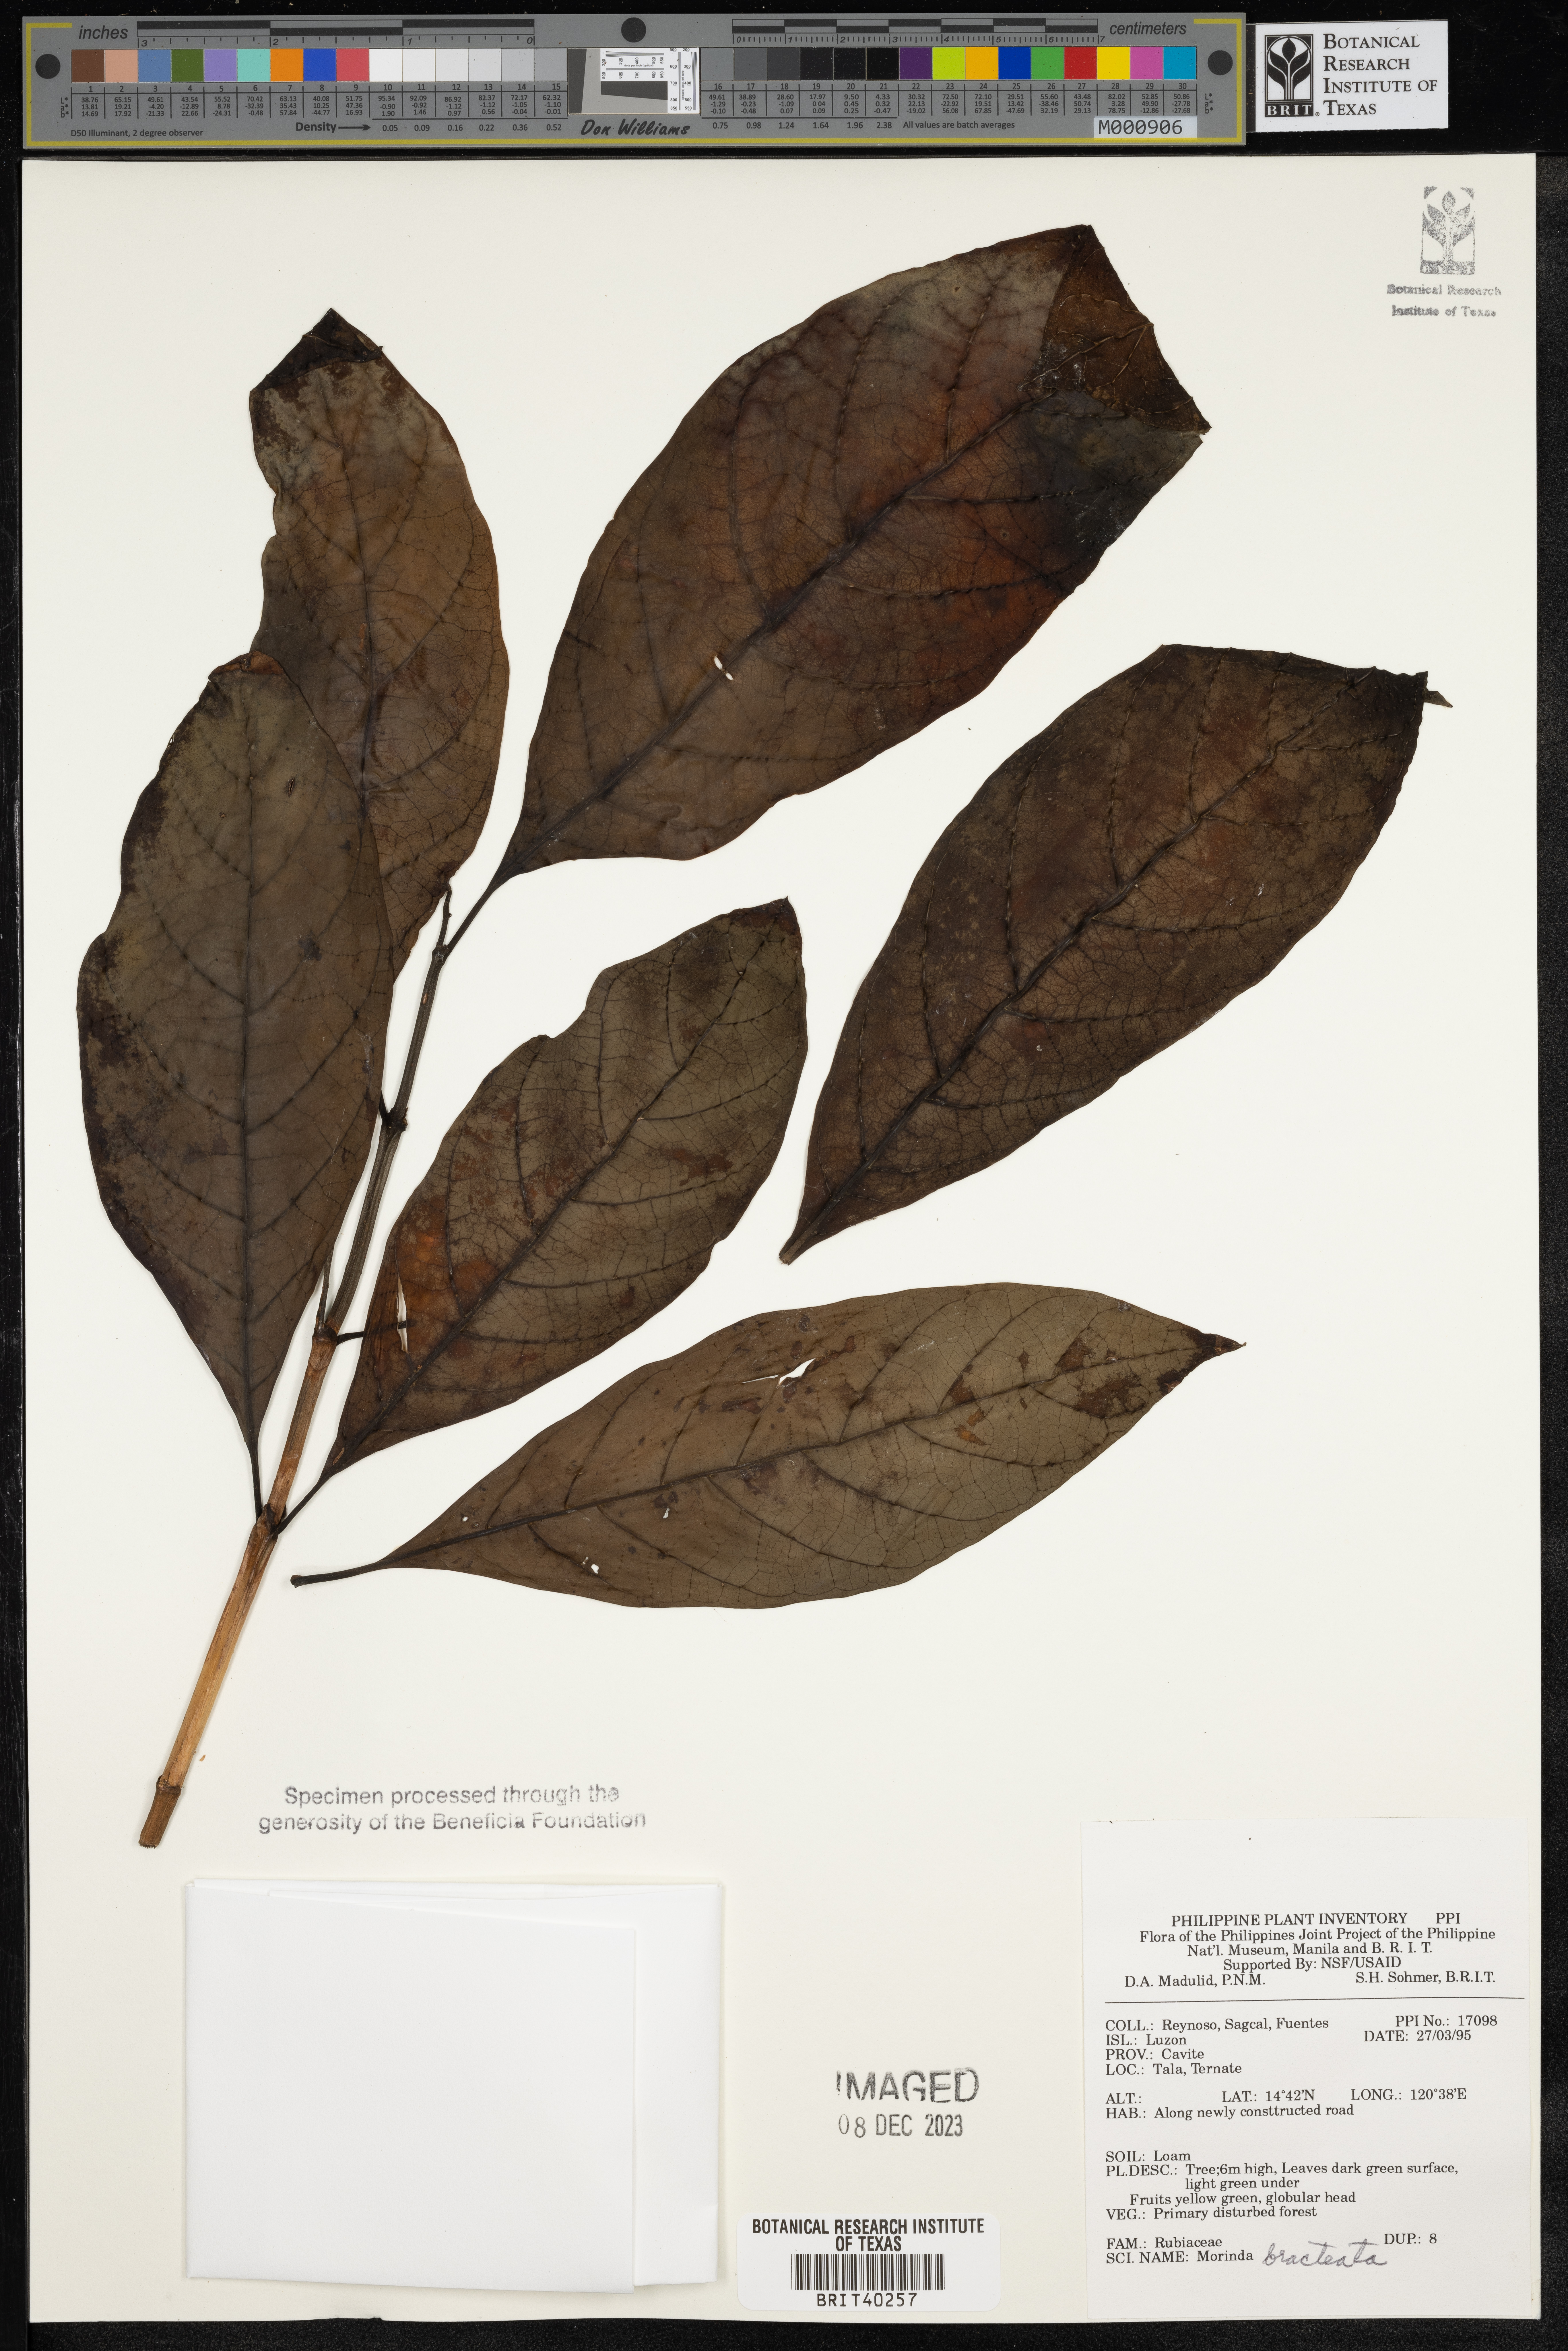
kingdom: Plantae
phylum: Tracheophyta
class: Magnoliopsida
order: Gentianales
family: Rubiaceae
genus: Morinda
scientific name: Morinda bracteata
